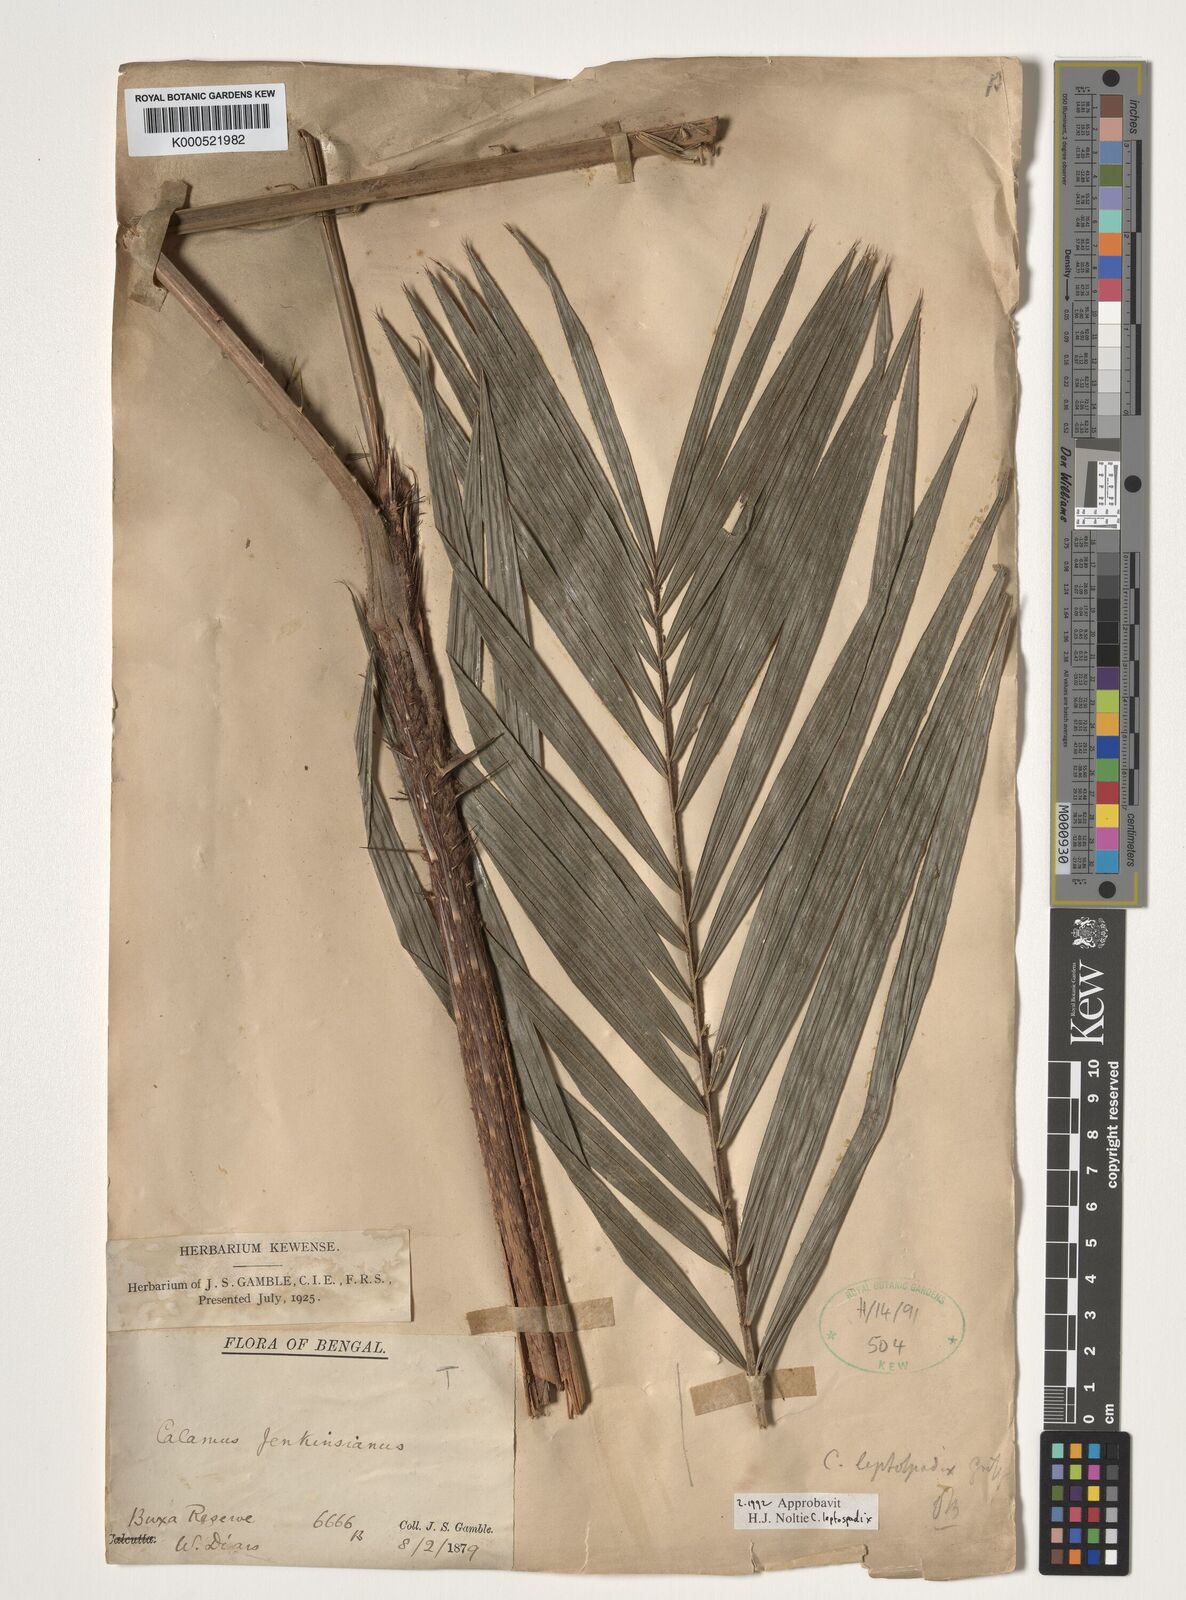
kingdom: Plantae
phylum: Tracheophyta
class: Liliopsida
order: Arecales
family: Arecaceae
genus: Calamus
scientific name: Calamus leptospadix
